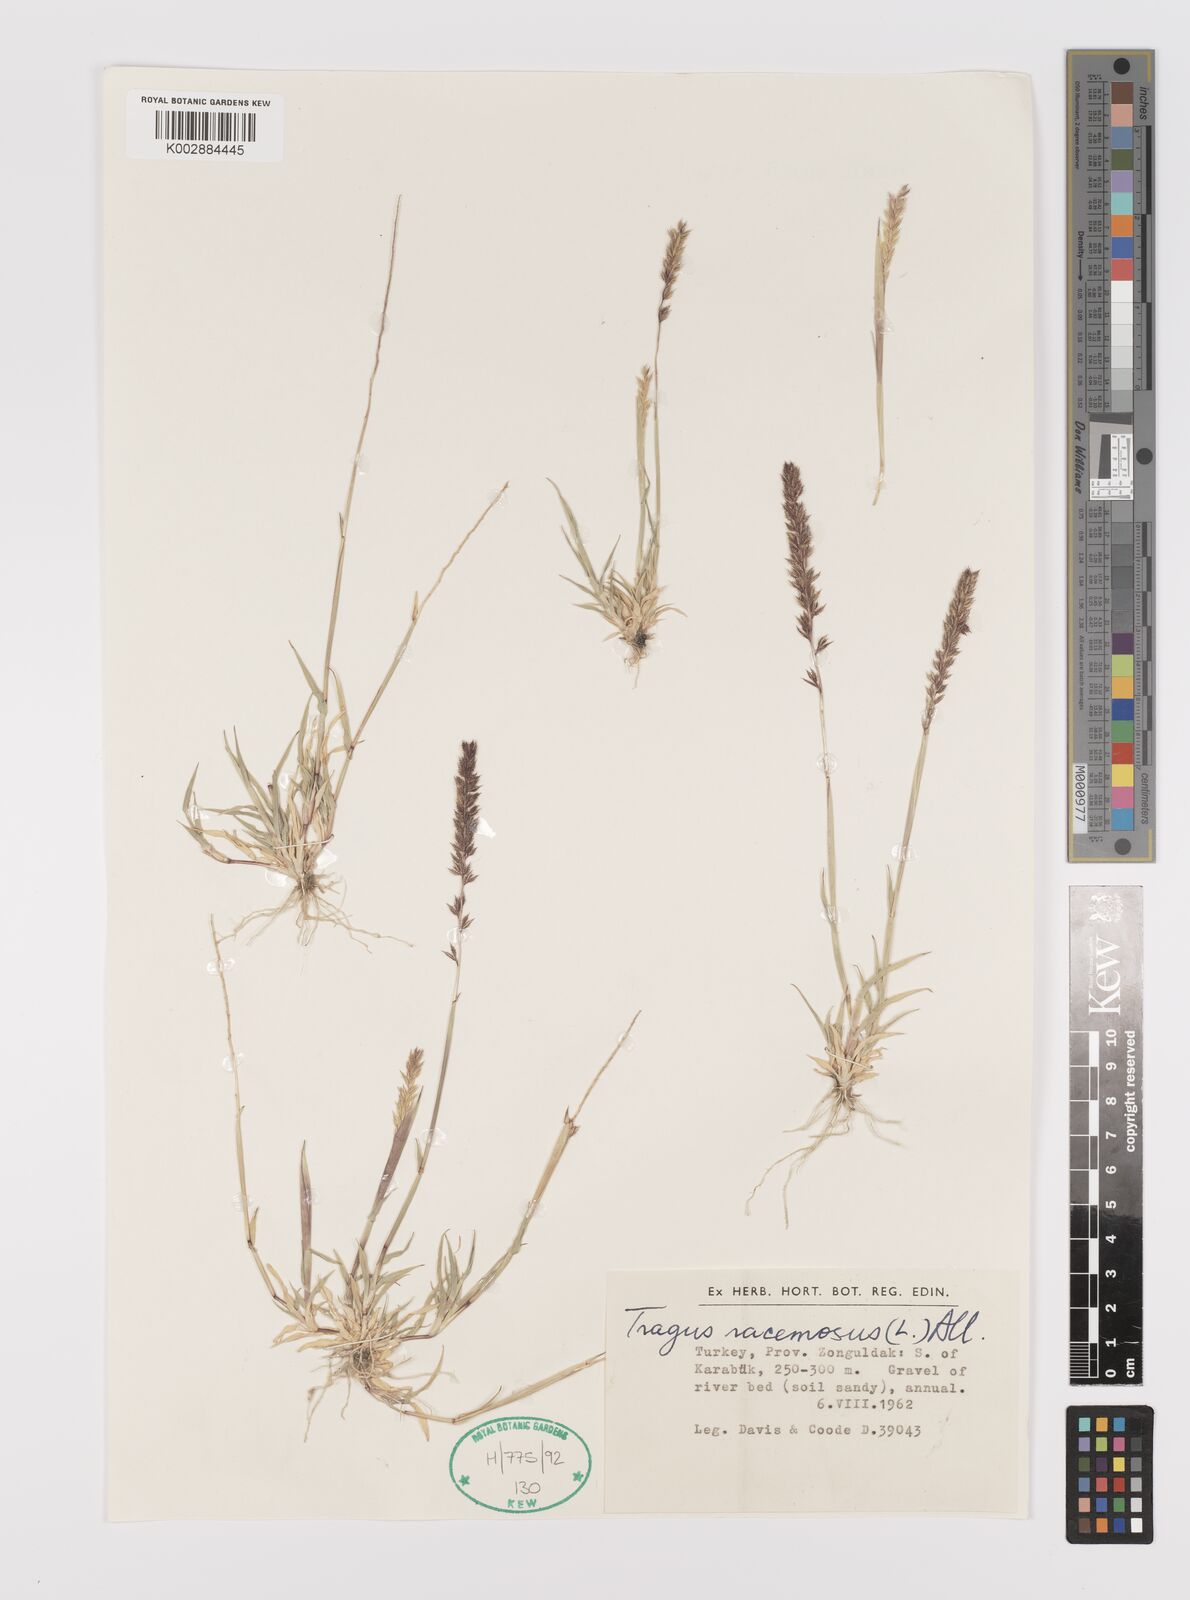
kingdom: Plantae
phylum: Tracheophyta
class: Liliopsida
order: Poales
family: Poaceae
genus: Tragus
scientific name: Tragus racemosus
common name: European bur-grass
